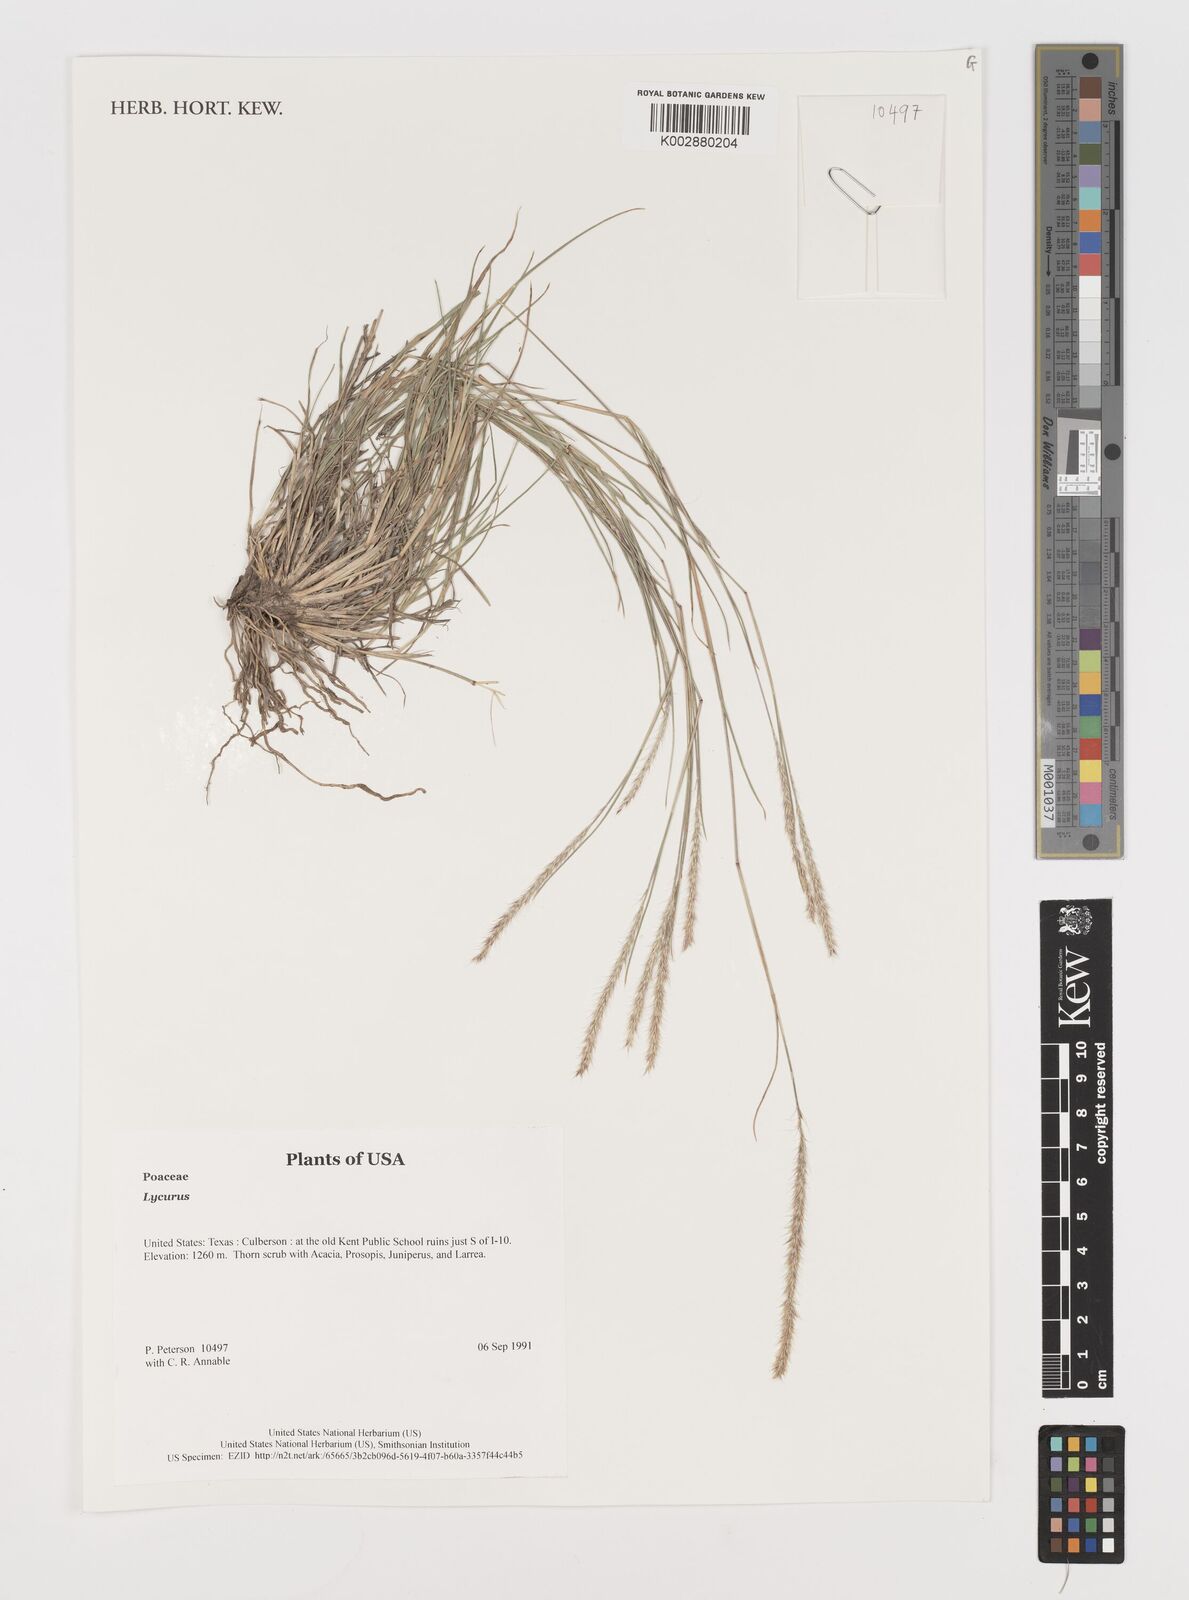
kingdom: Plantae
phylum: Tracheophyta
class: Liliopsida
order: Poales
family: Poaceae
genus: Muhlenbergia
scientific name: Muhlenbergia
